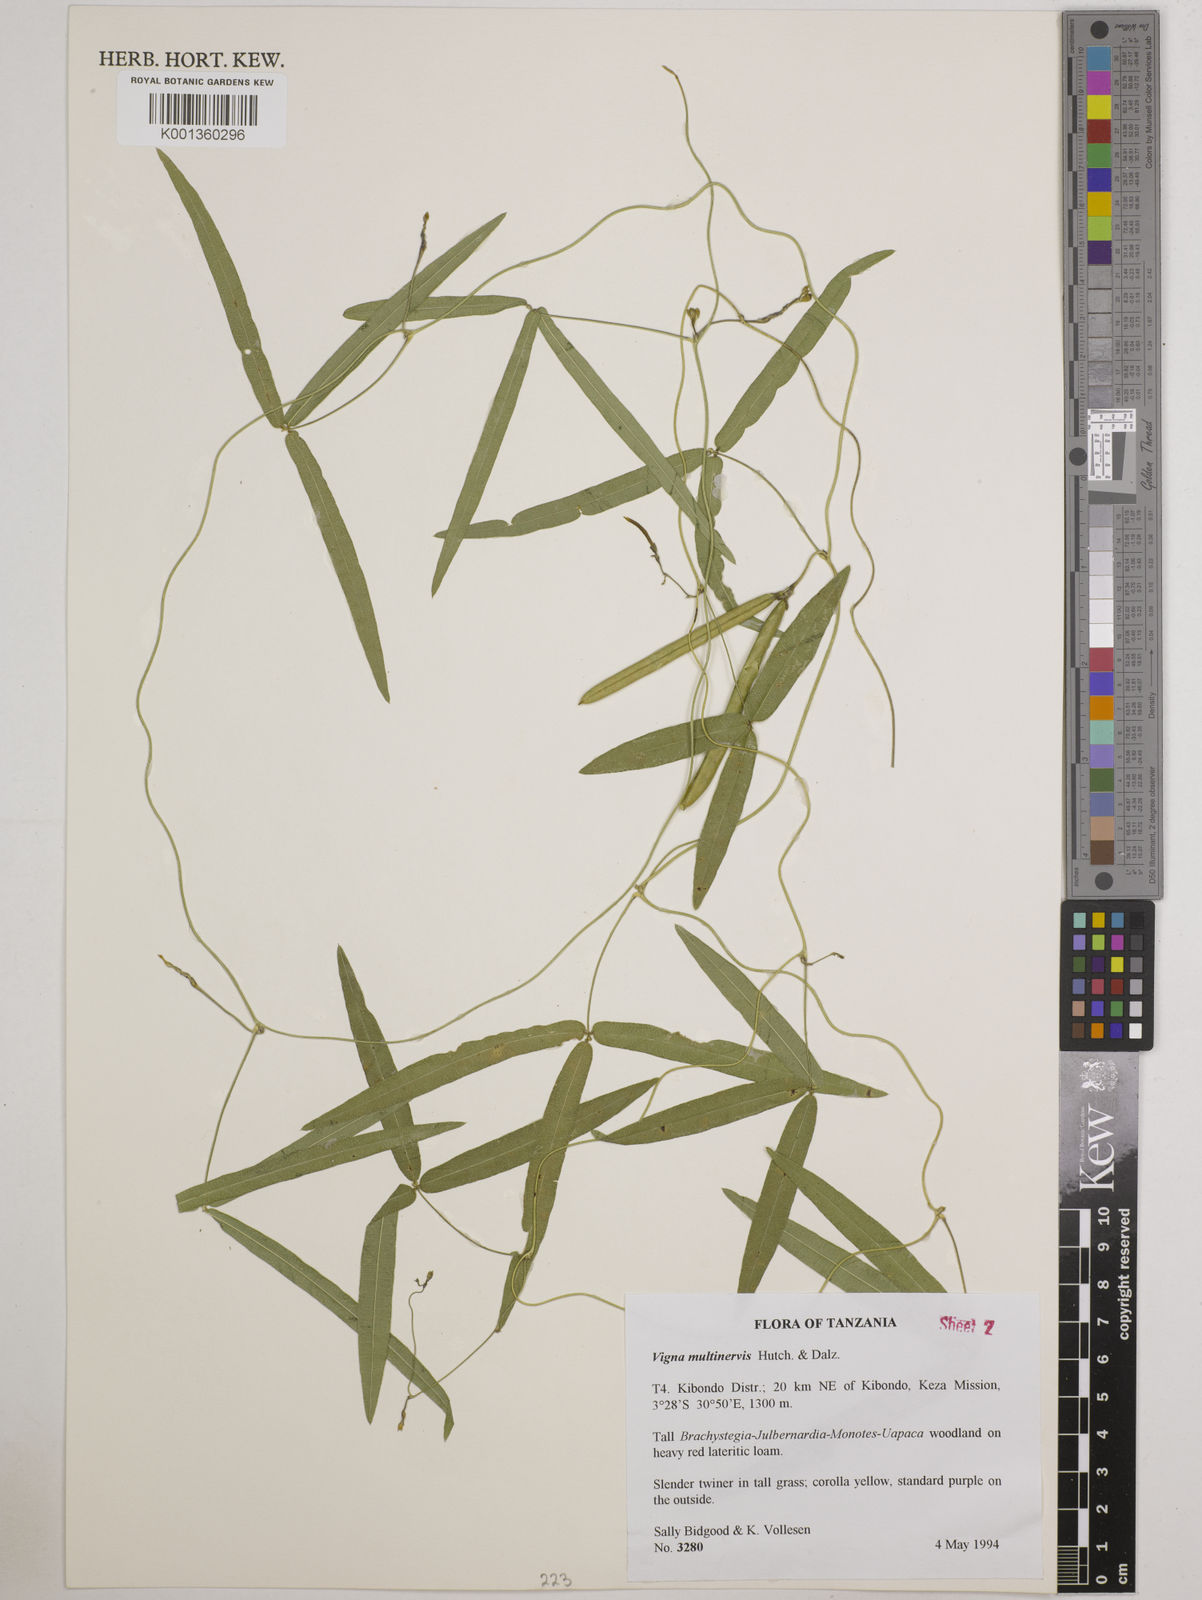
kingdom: Plantae
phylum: Tracheophyta
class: Magnoliopsida
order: Fabales
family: Fabaceae
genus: Vigna
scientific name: Vigna multinervis
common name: Fula-pulaar
